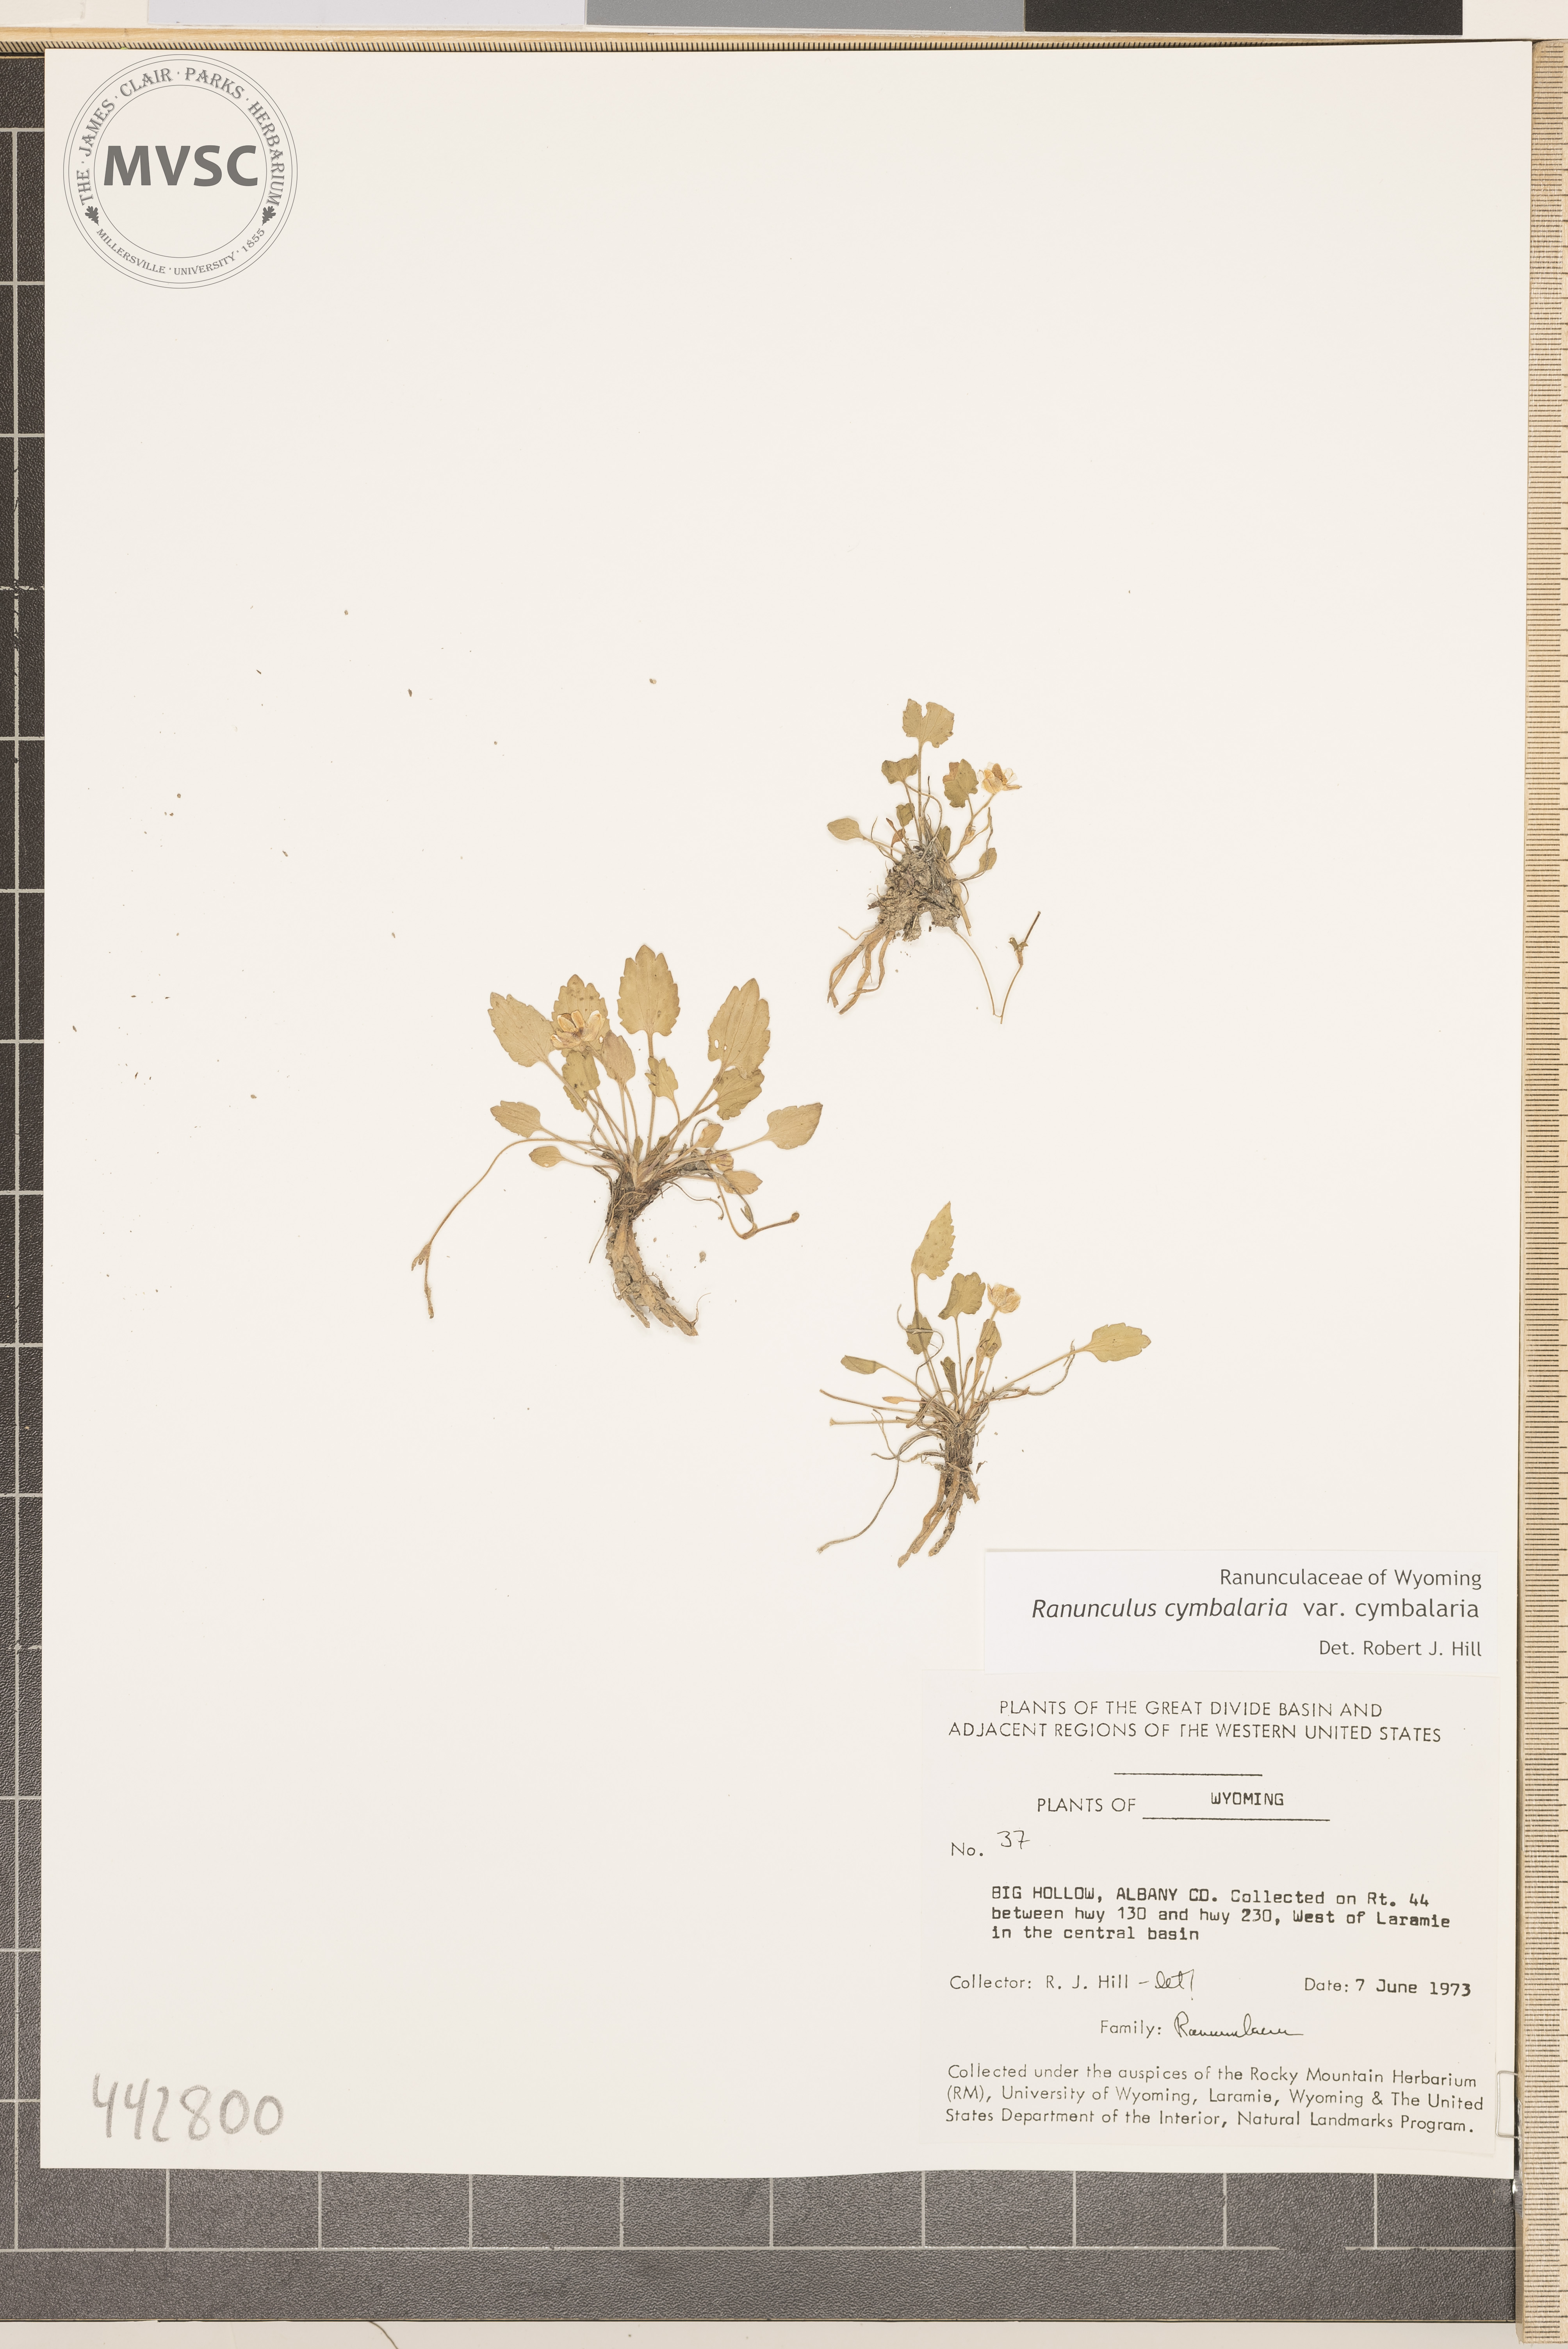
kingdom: Plantae
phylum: Tracheophyta
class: Magnoliopsida
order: Ranunculales
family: Ranunculaceae
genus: Halerpestes
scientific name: Halerpestes cymbalaria
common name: Seaside crowfoot
